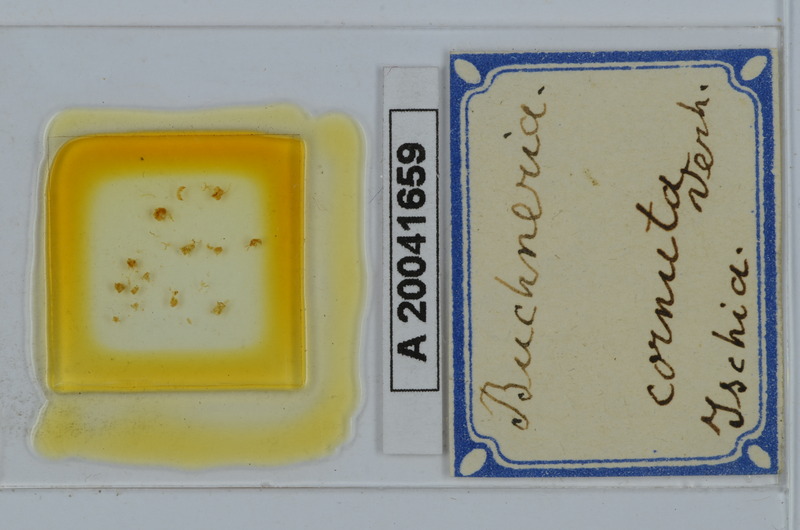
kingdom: Animalia
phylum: Arthropoda
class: Diplopoda
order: Julida
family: Julidae
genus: Buchneria
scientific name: Buchneria cornuta
